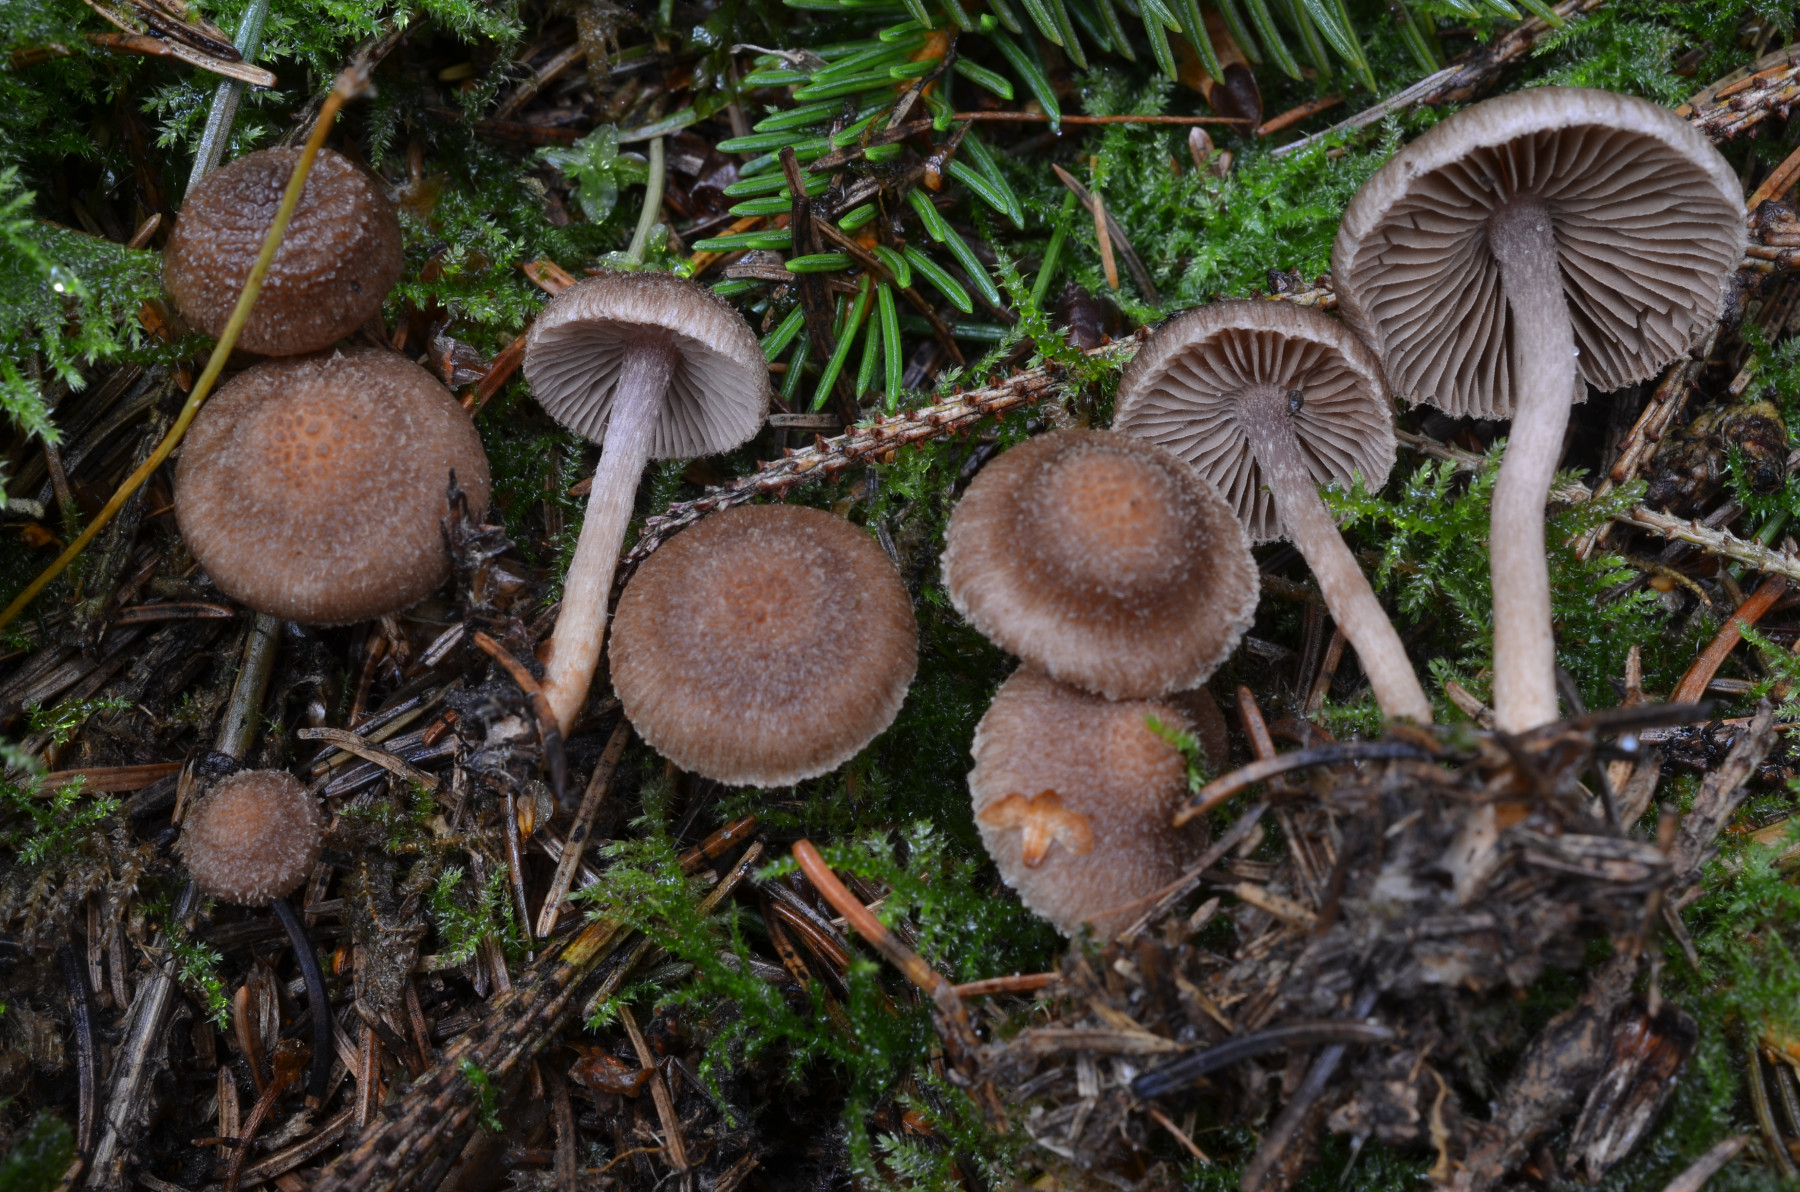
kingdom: Fungi
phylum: Basidiomycota
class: Agaricomycetes
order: Agaricales
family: Inocybaceae
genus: Inocybe
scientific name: Inocybe cincinnata
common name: lillabladet trævlhat
